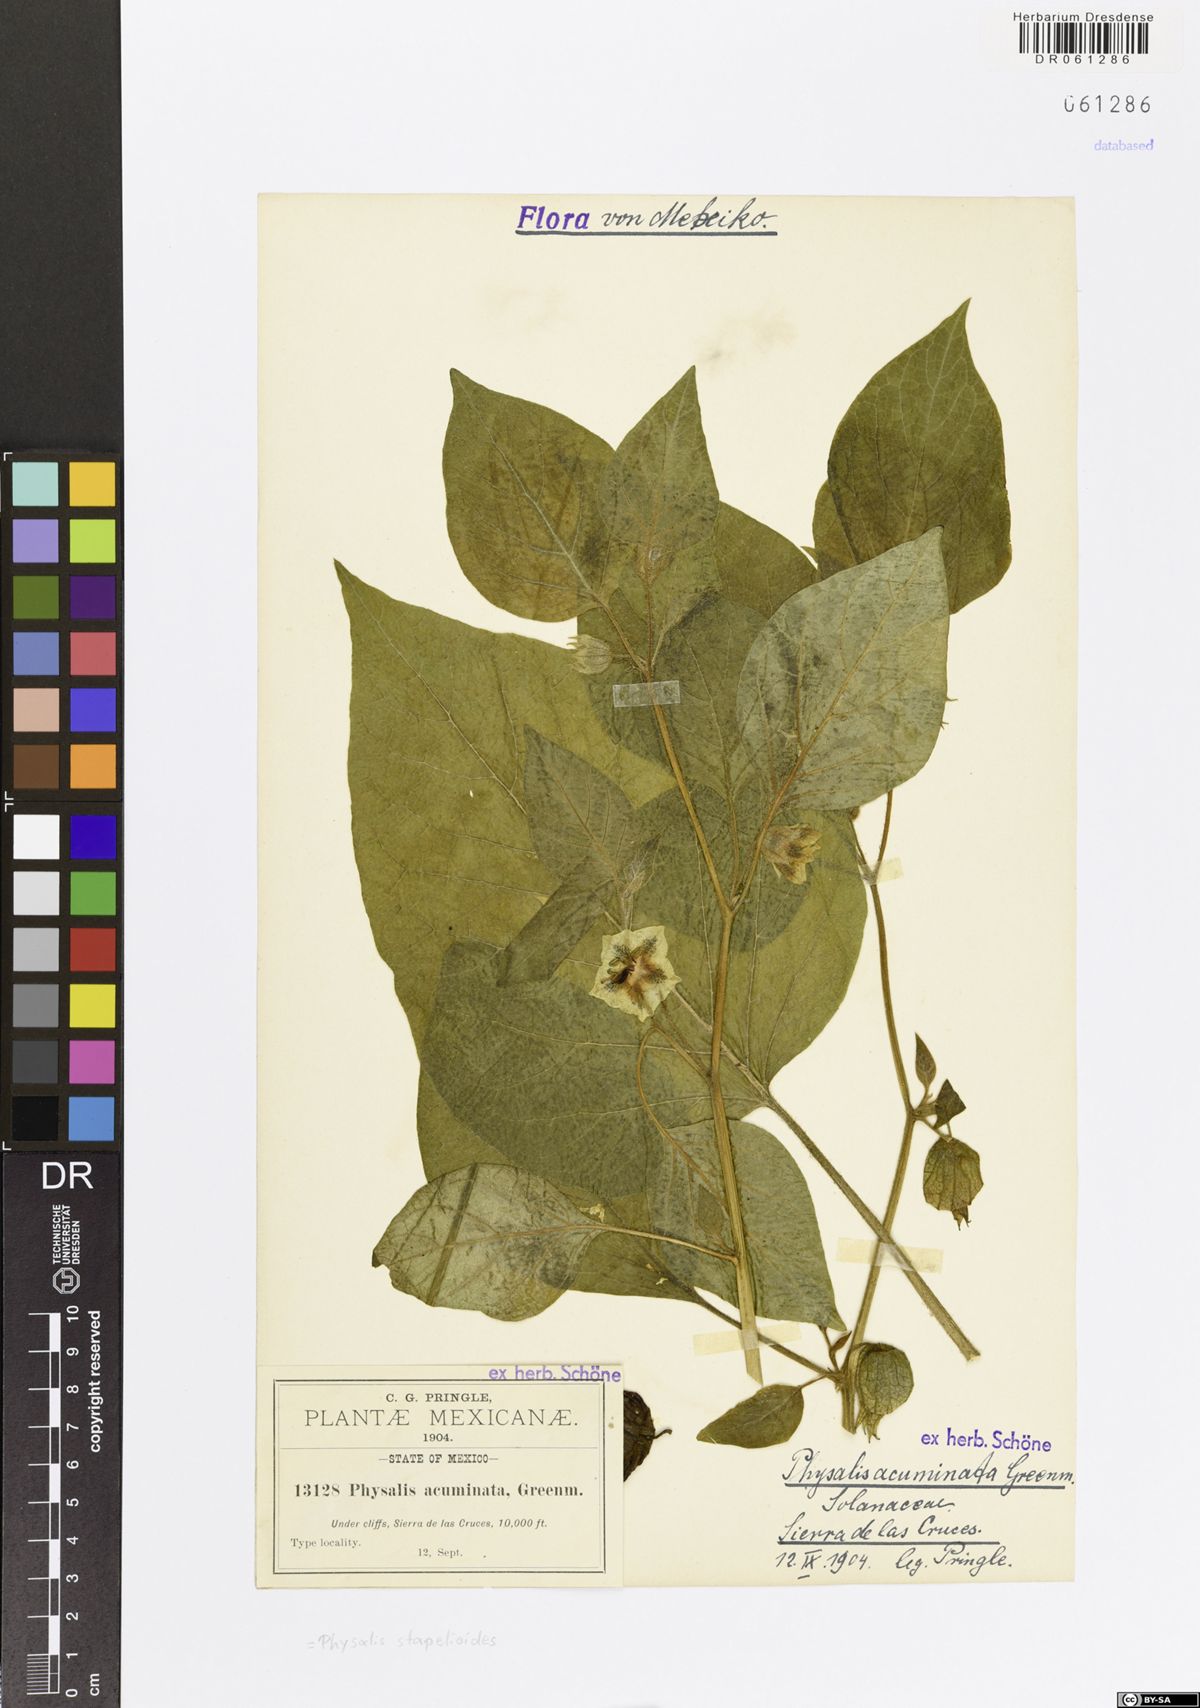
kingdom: Plantae
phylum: Tracheophyta
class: Magnoliopsida
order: Solanales
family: Solanaceae
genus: Physalis
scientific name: Physalis stapelioides
